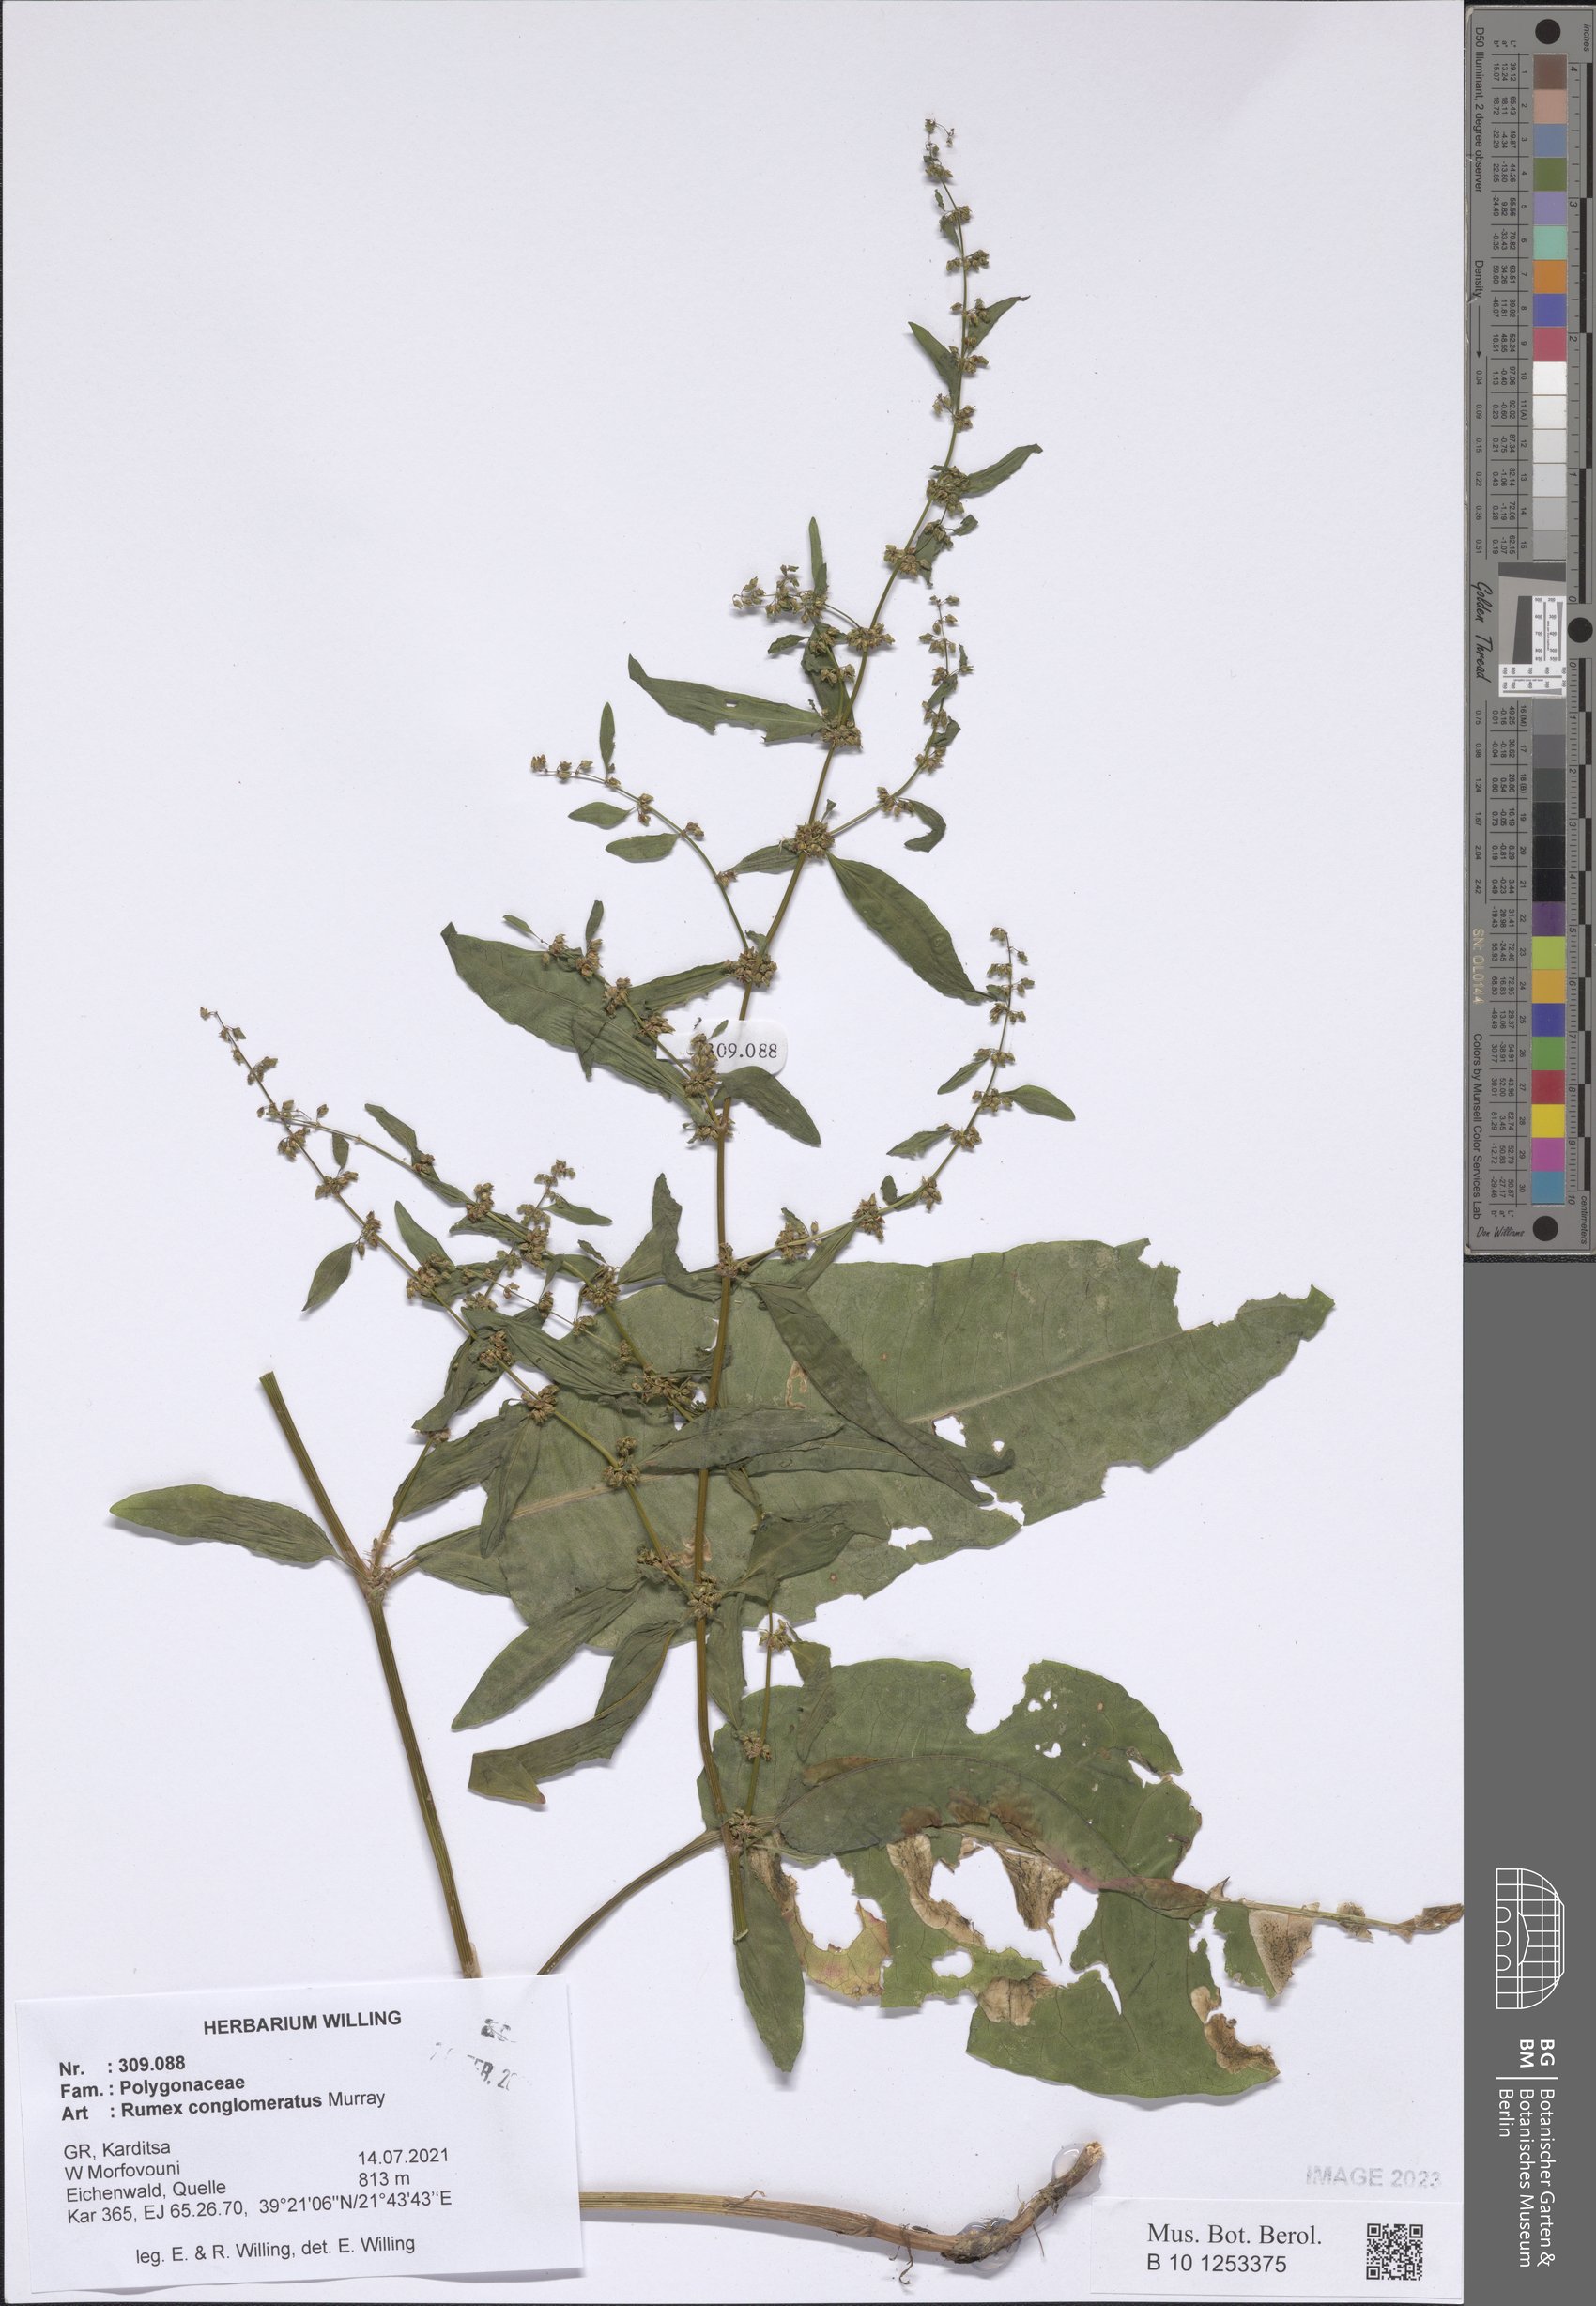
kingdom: Plantae
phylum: Tracheophyta
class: Magnoliopsida
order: Caryophyllales
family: Polygonaceae
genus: Rumex
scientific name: Rumex conglomeratus
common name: Clustered dock
